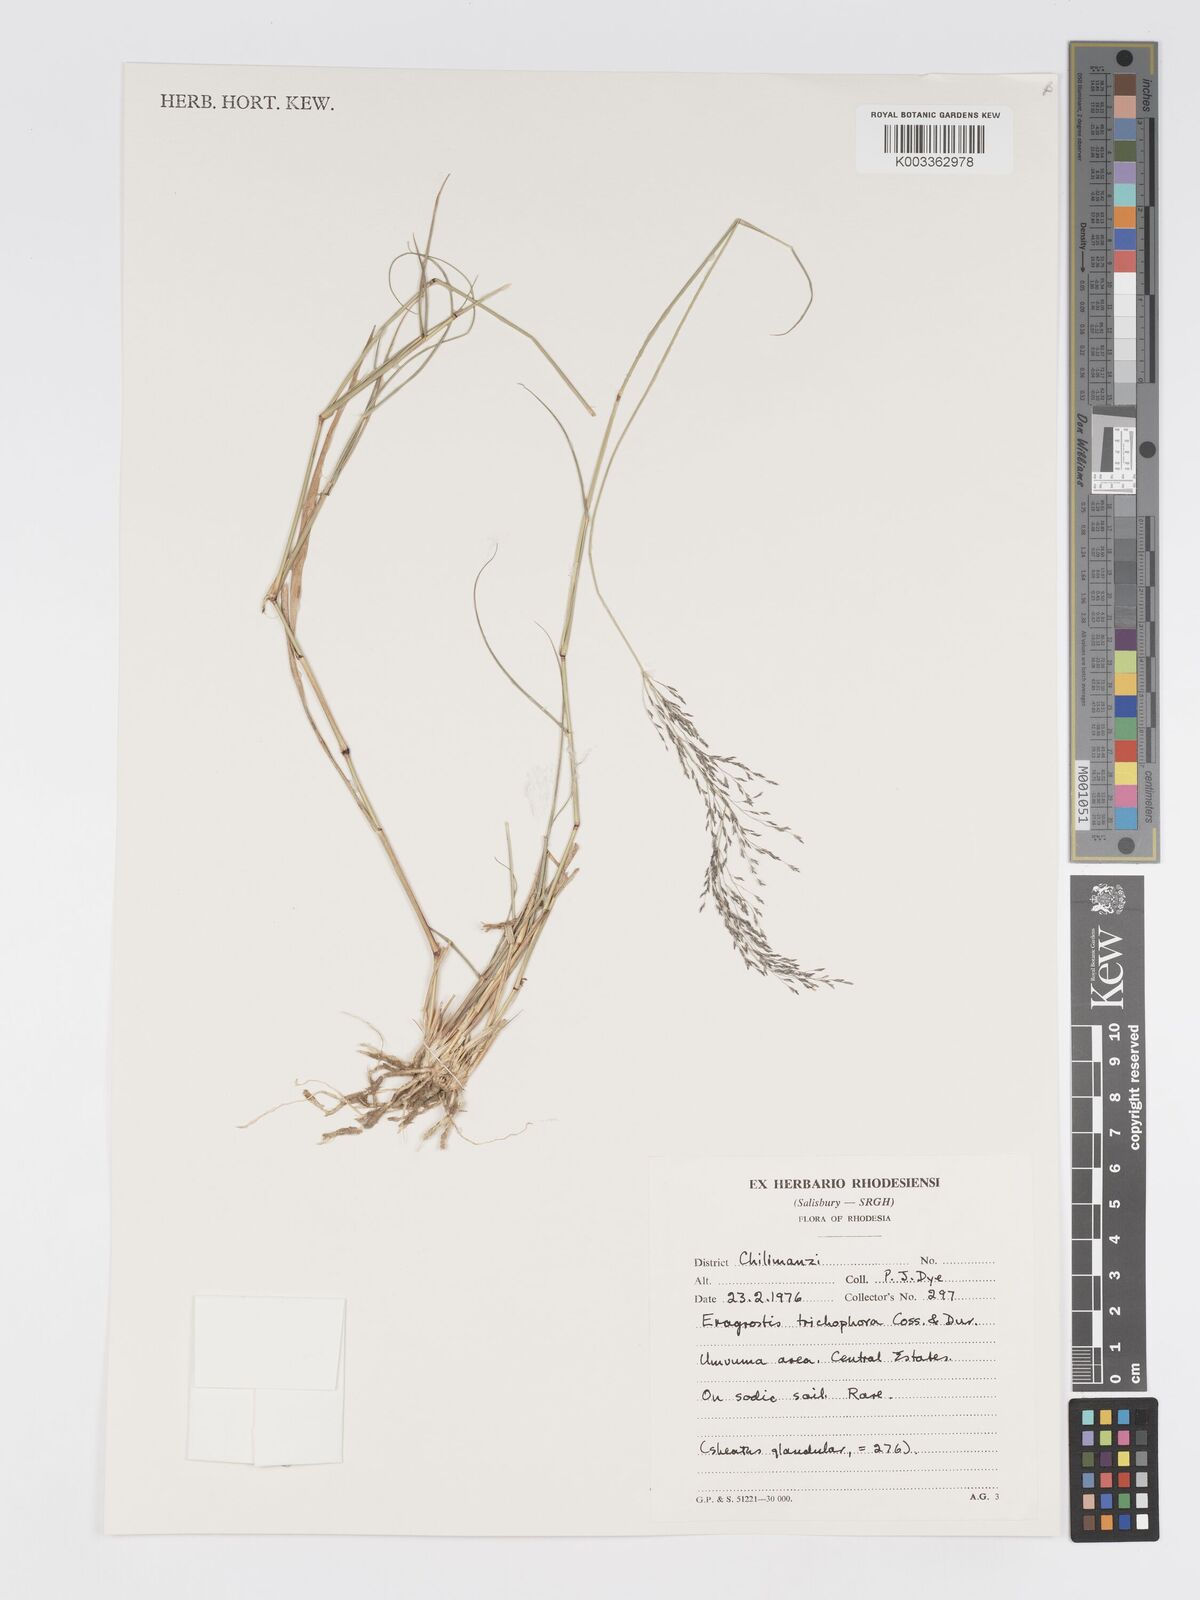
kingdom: Plantae
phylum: Tracheophyta
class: Liliopsida
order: Poales
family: Poaceae
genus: Eragrostis
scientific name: Eragrostis cylindriflora
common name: Cylinderflower lovegrass
